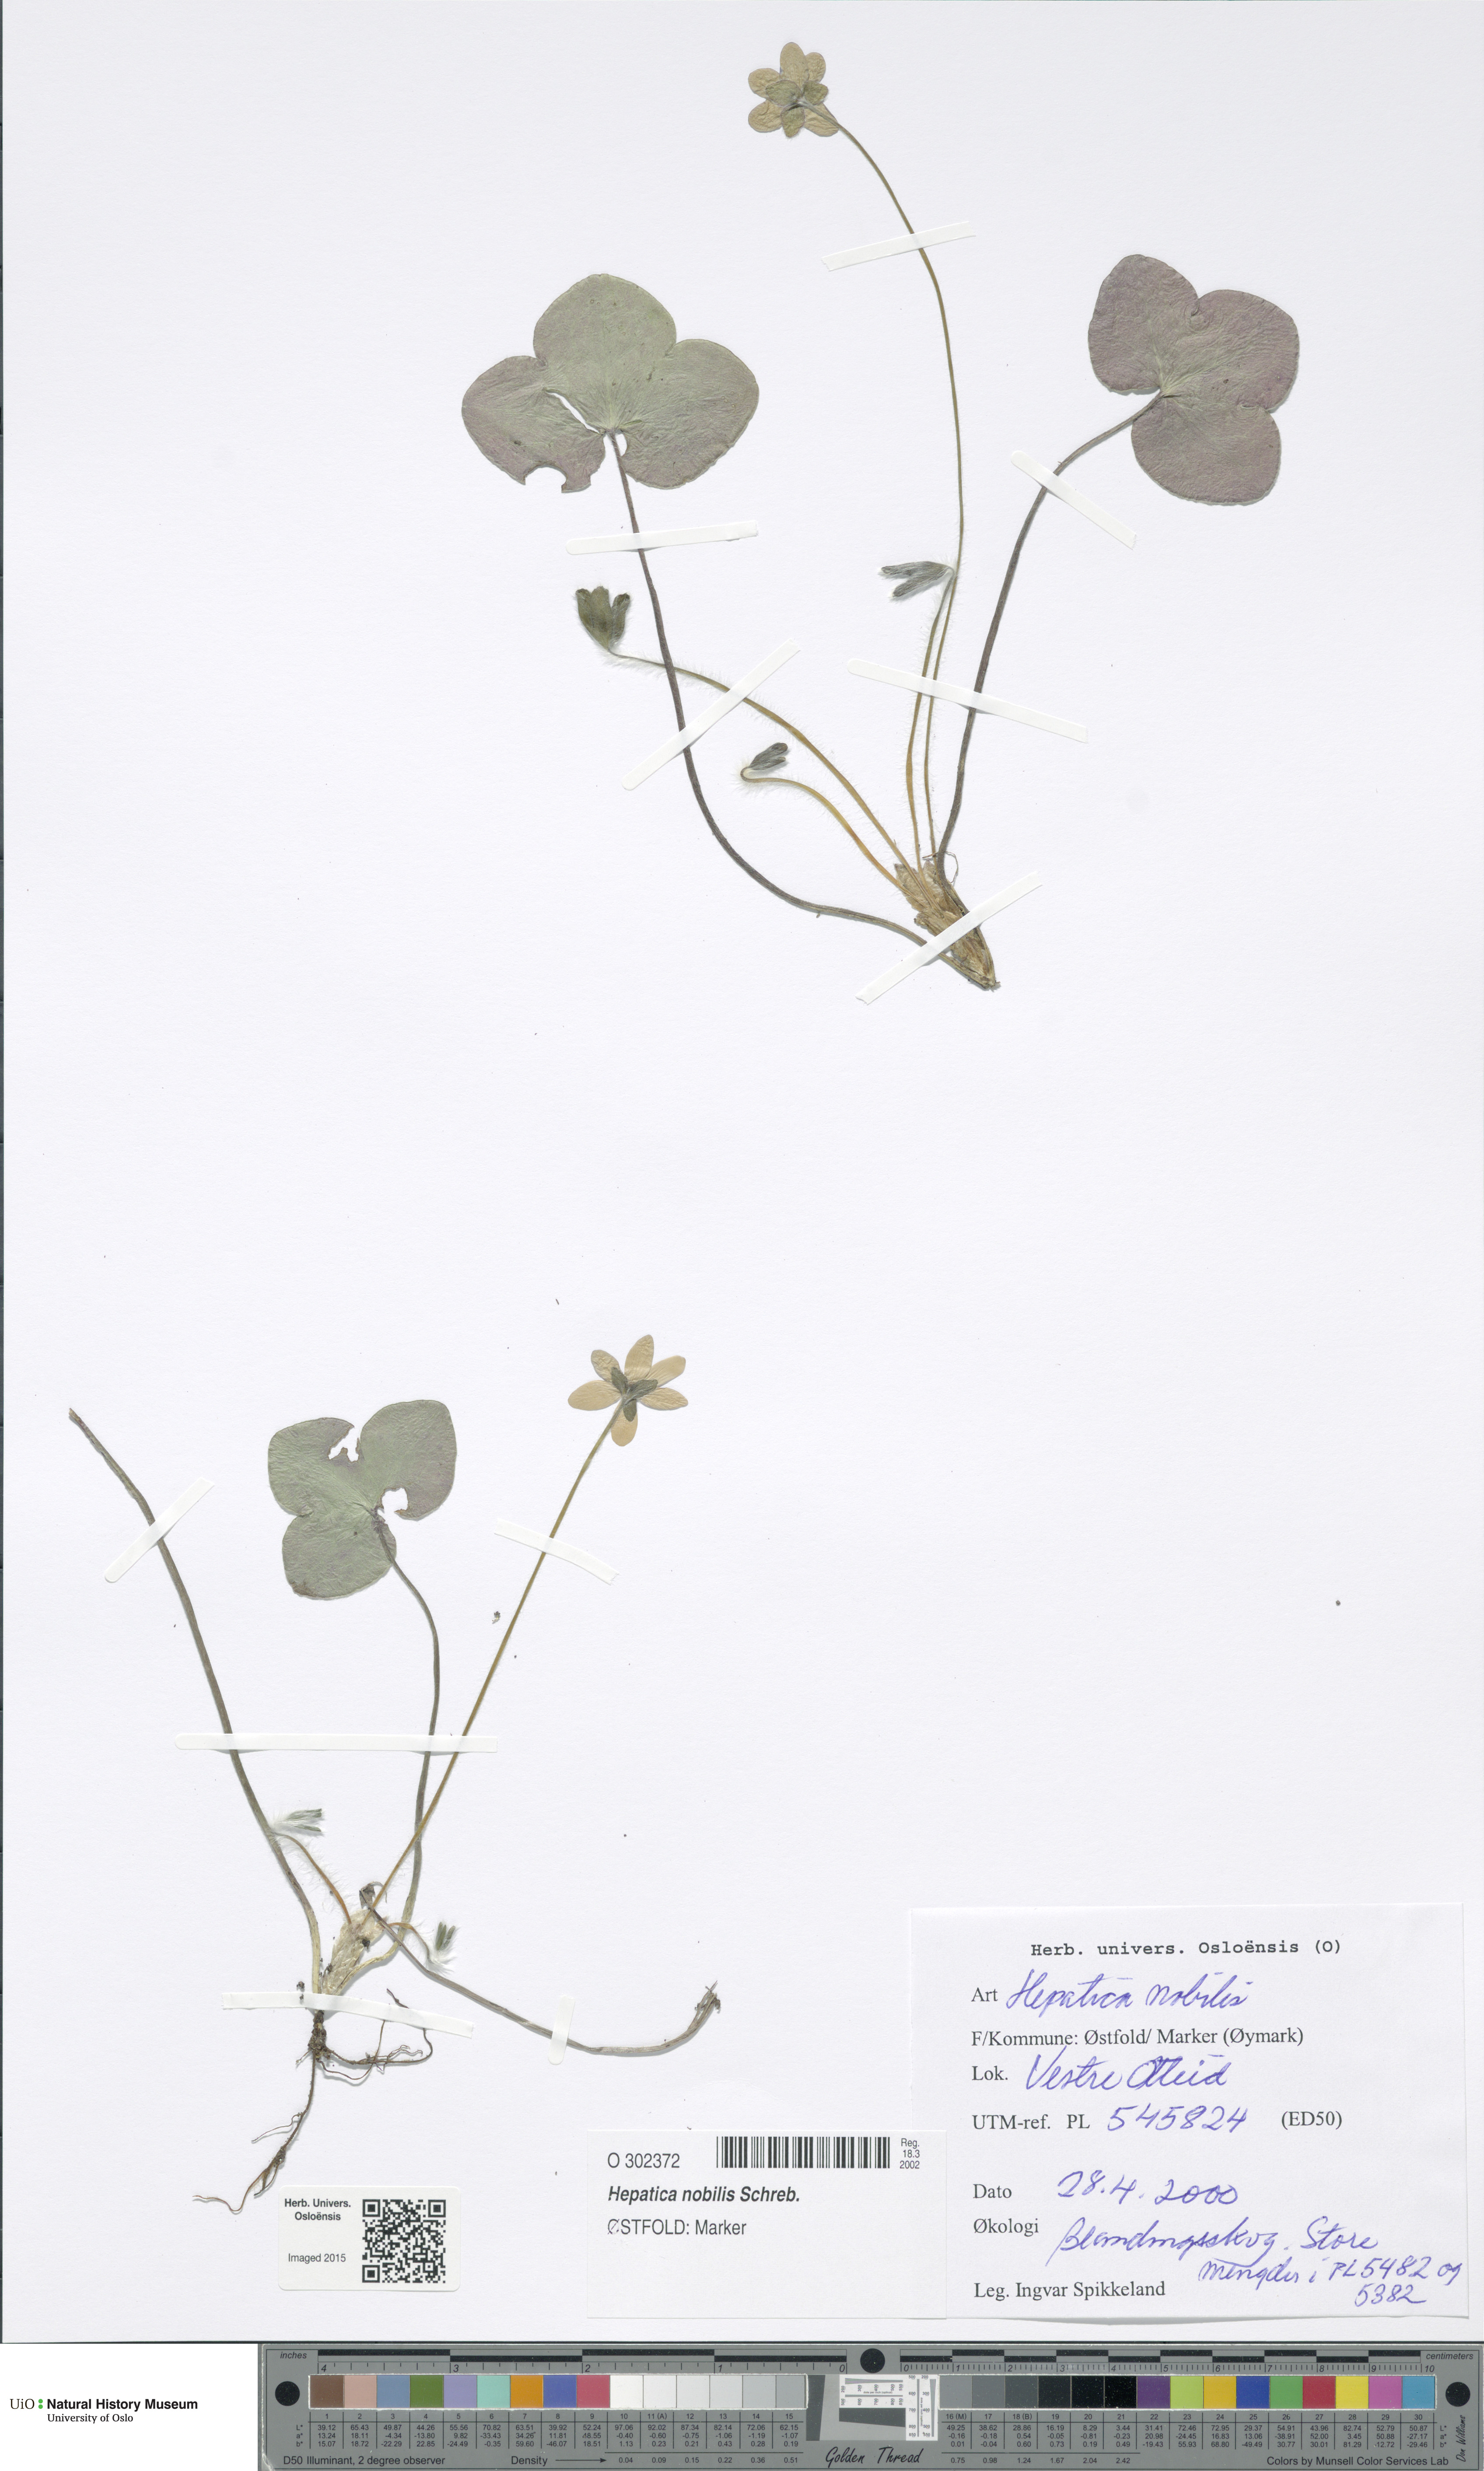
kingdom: Plantae
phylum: Tracheophyta
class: Magnoliopsida
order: Ranunculales
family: Ranunculaceae
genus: Hepatica
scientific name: Hepatica nobilis
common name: Liverleaf
